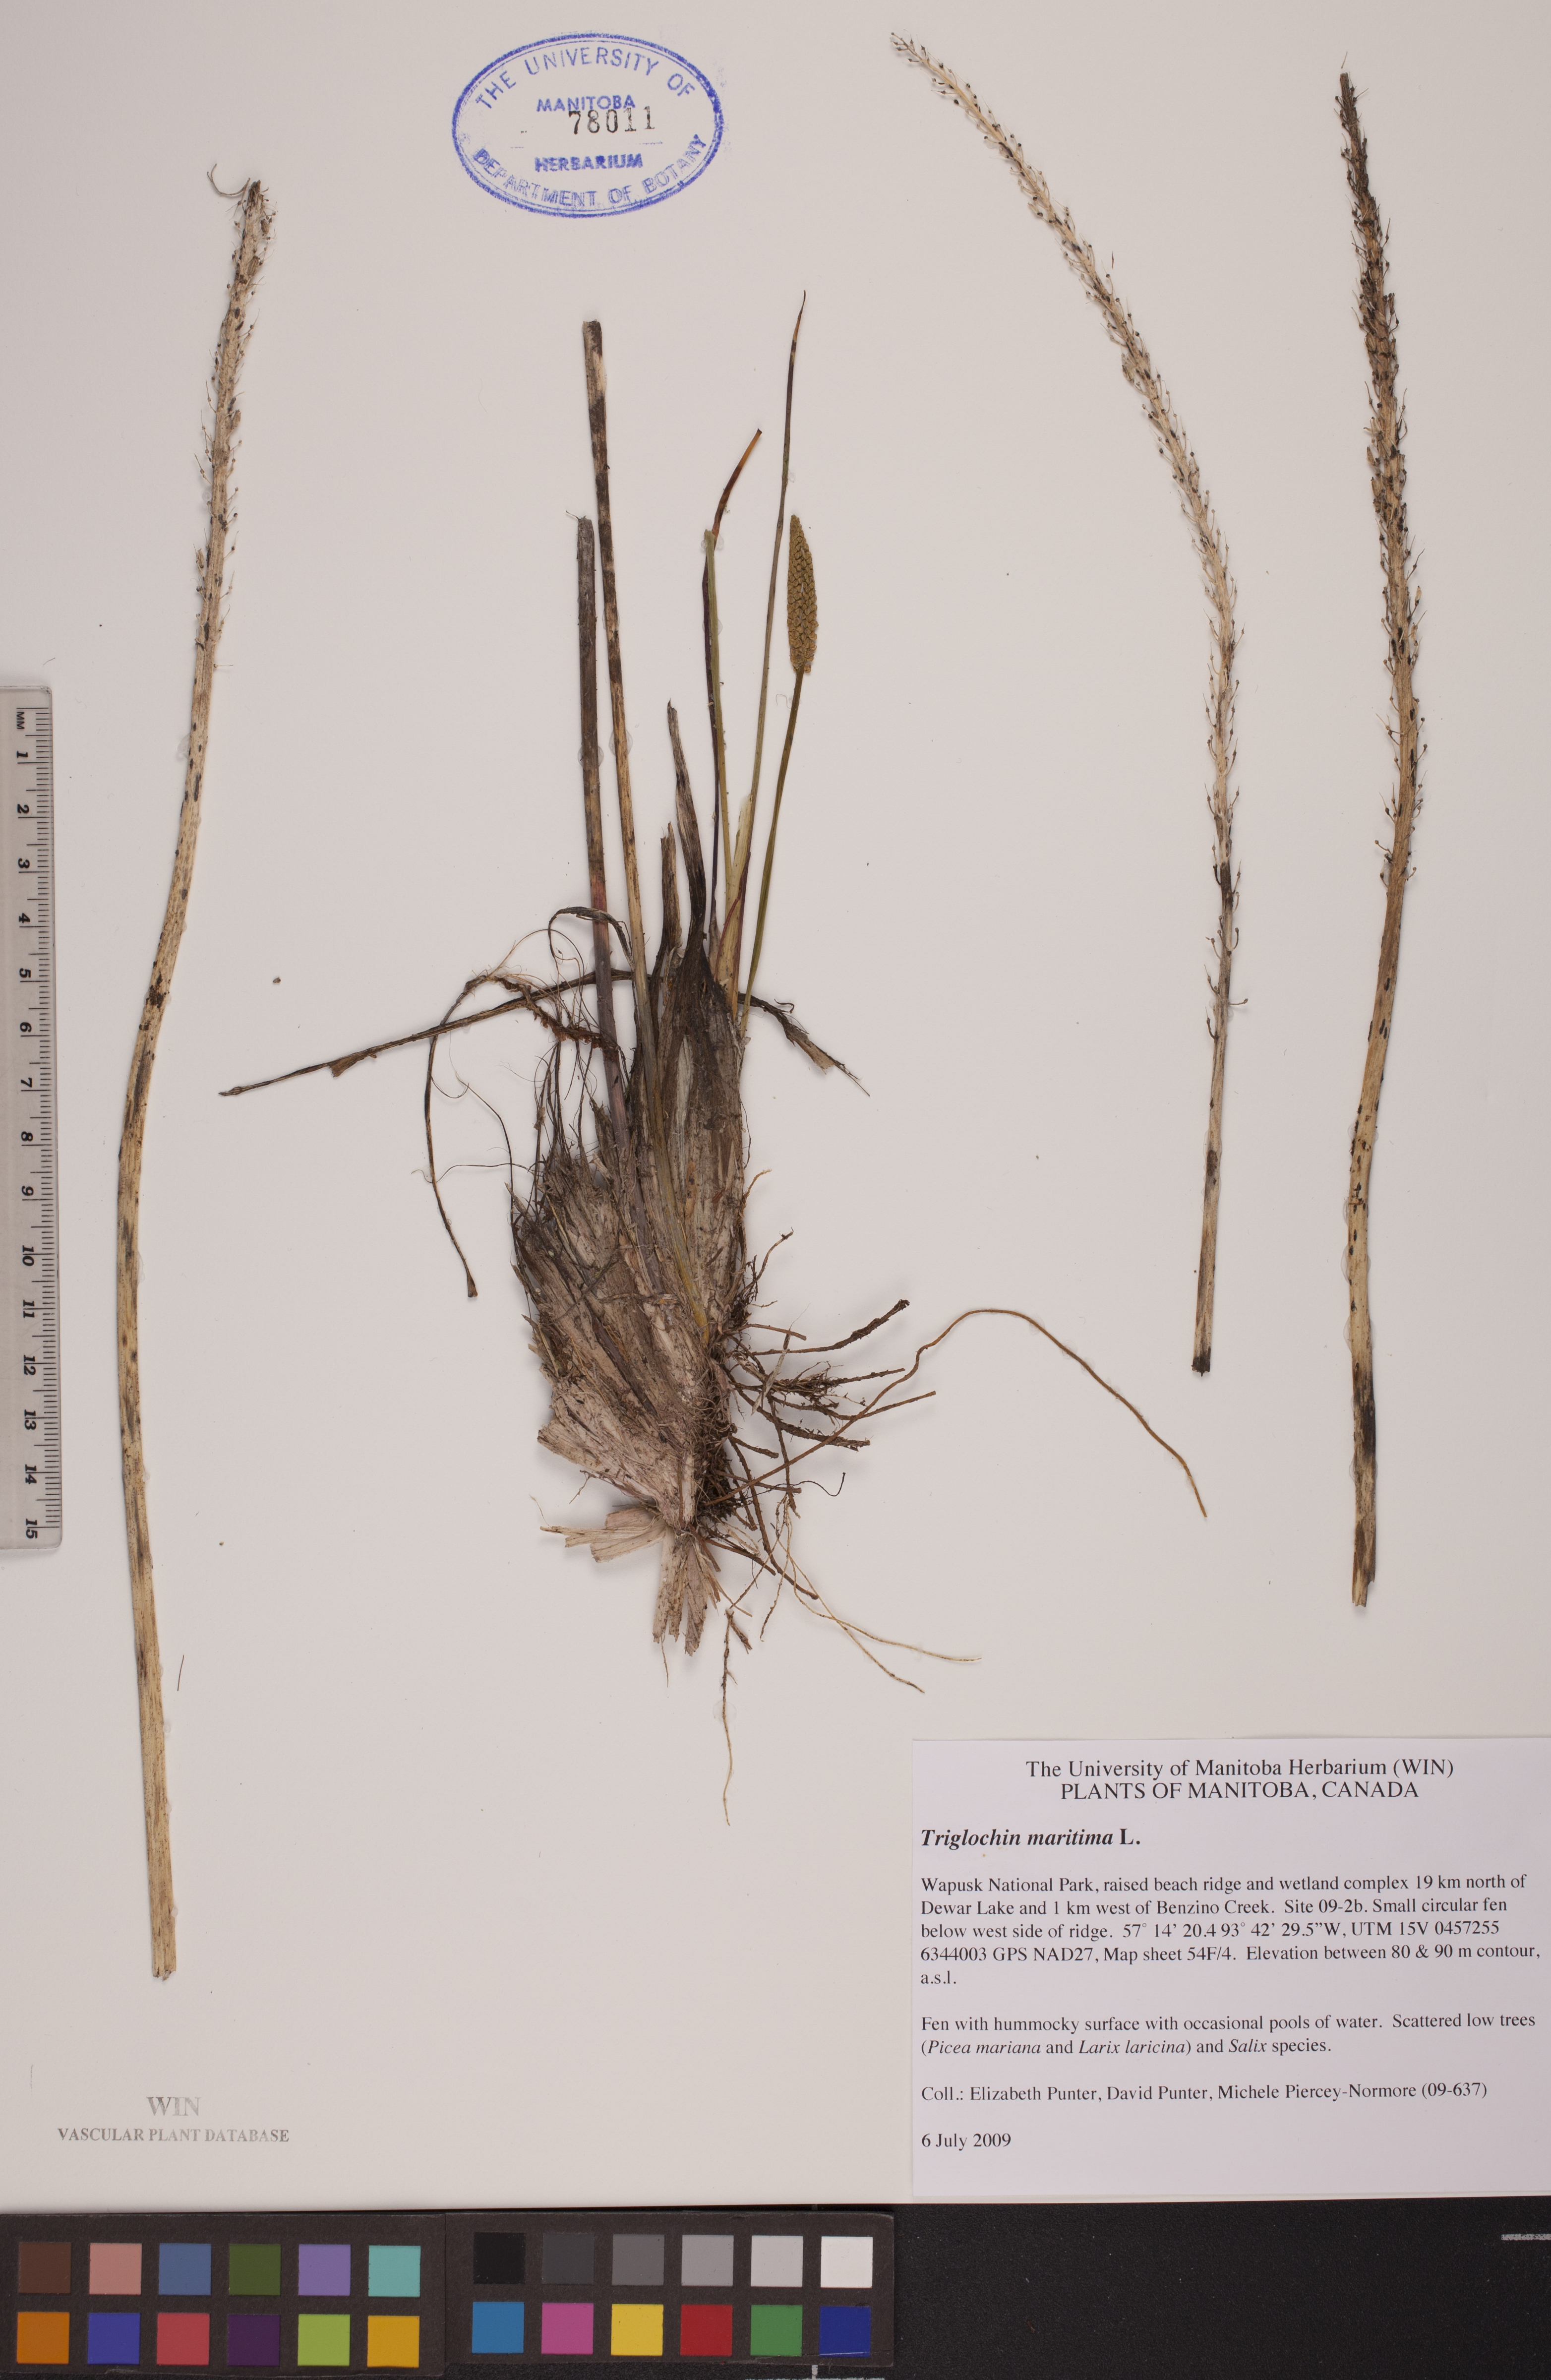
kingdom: Plantae
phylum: Tracheophyta
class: Liliopsida
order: Alismatales
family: Juncaginaceae
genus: Triglochin
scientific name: Triglochin maritima
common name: Sea arrowgrass
